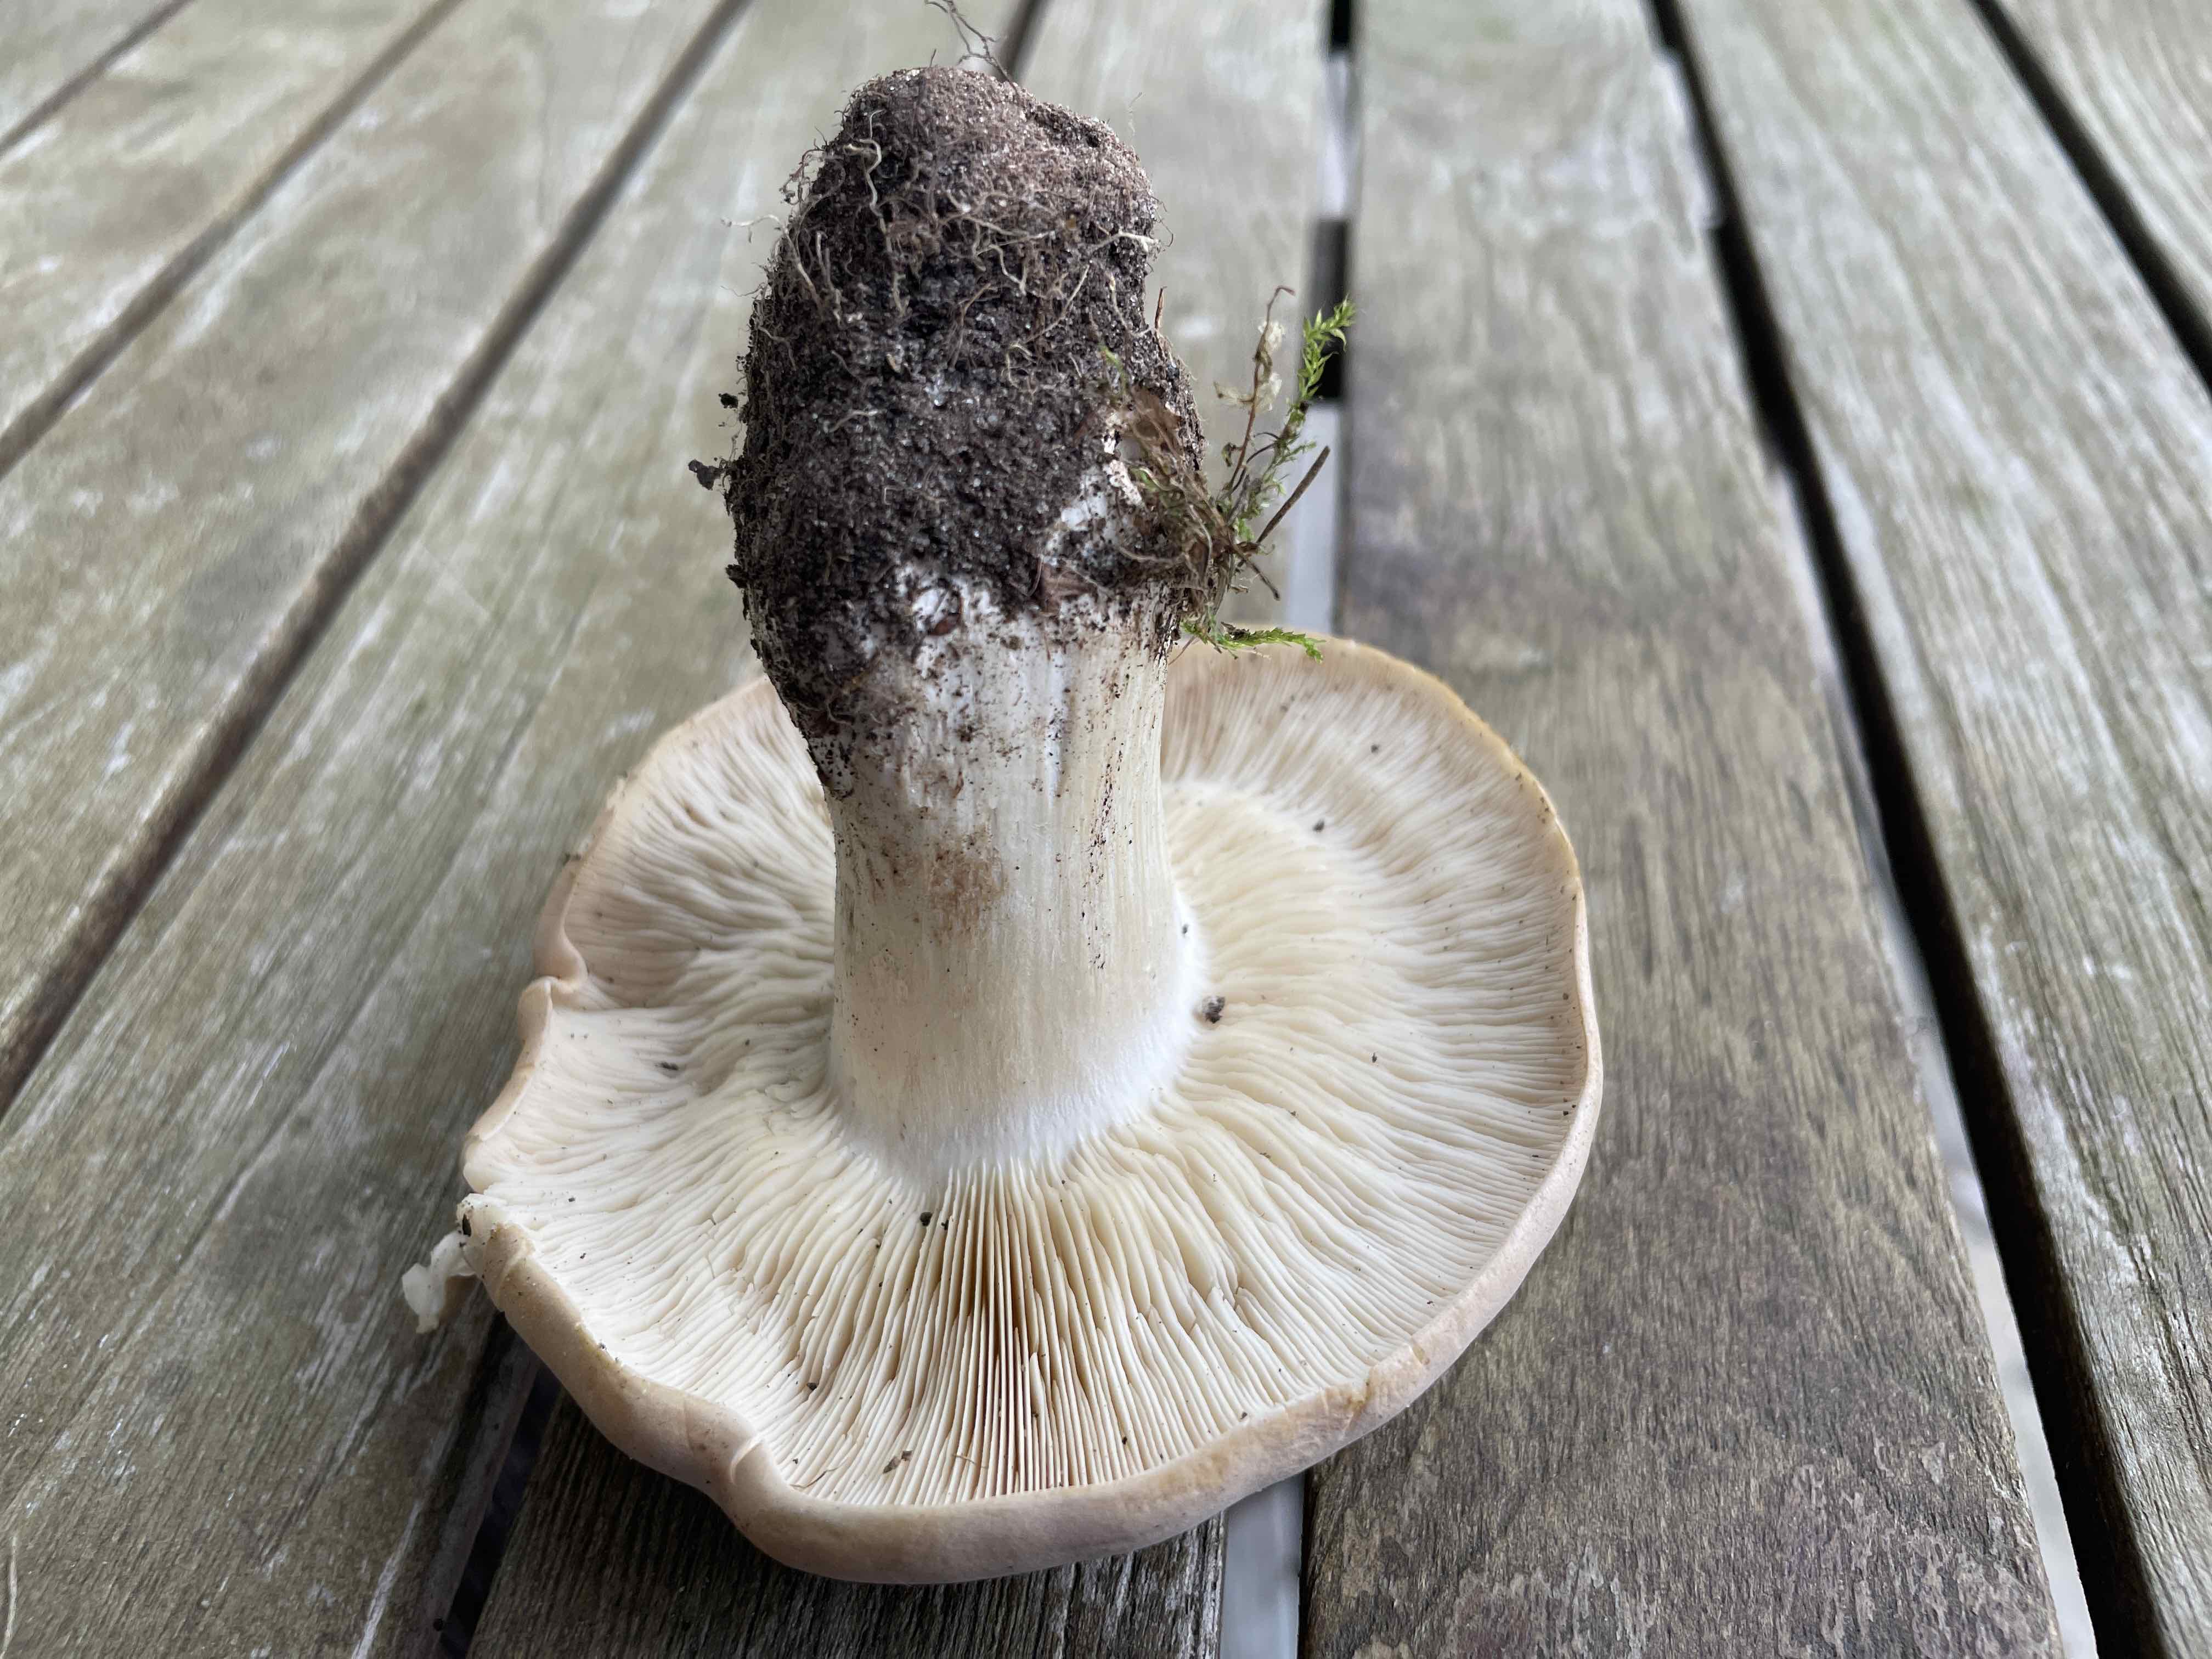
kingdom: Fungi
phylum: Basidiomycota
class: Agaricomycetes
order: Agaricales
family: Lyophyllaceae
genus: Calocybe
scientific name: Calocybe gambosa
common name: vårmusseron
